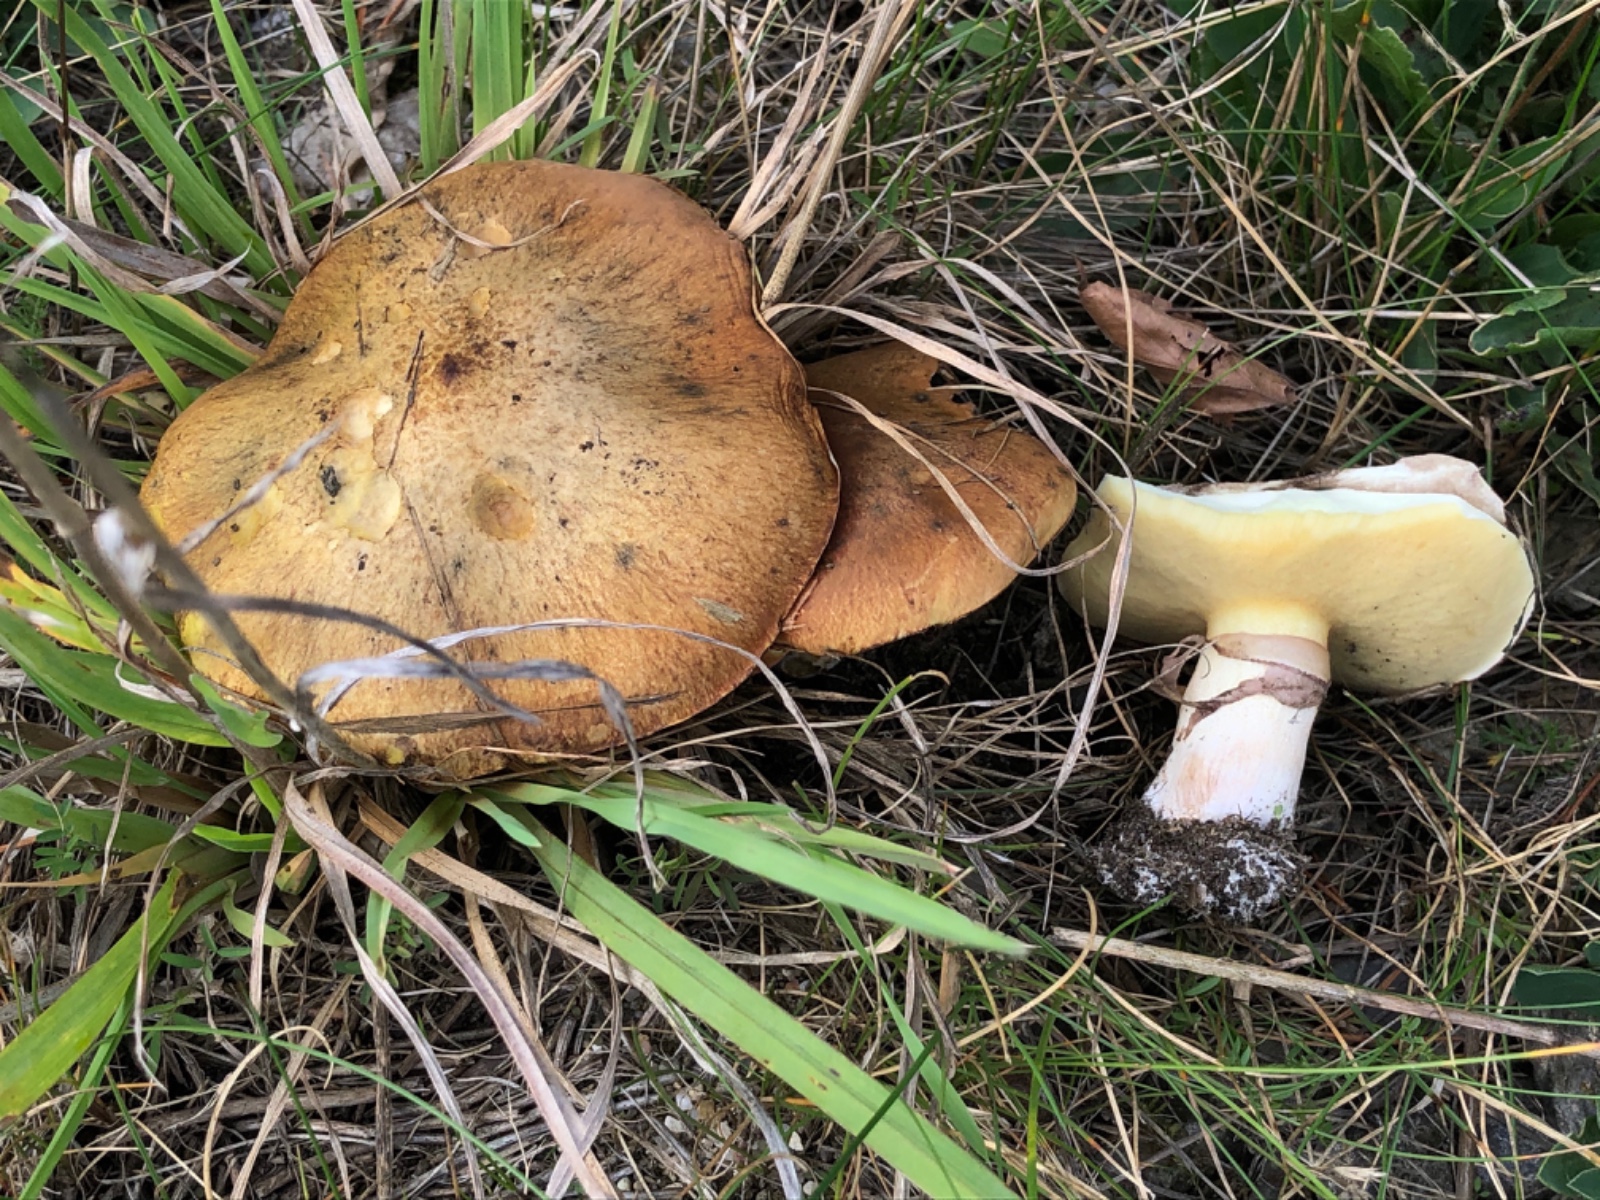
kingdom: Fungi
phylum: Basidiomycota
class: Agaricomycetes
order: Boletales
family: Suillaceae
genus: Suillus
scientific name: Suillus luteus
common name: brungul slimrørhat
